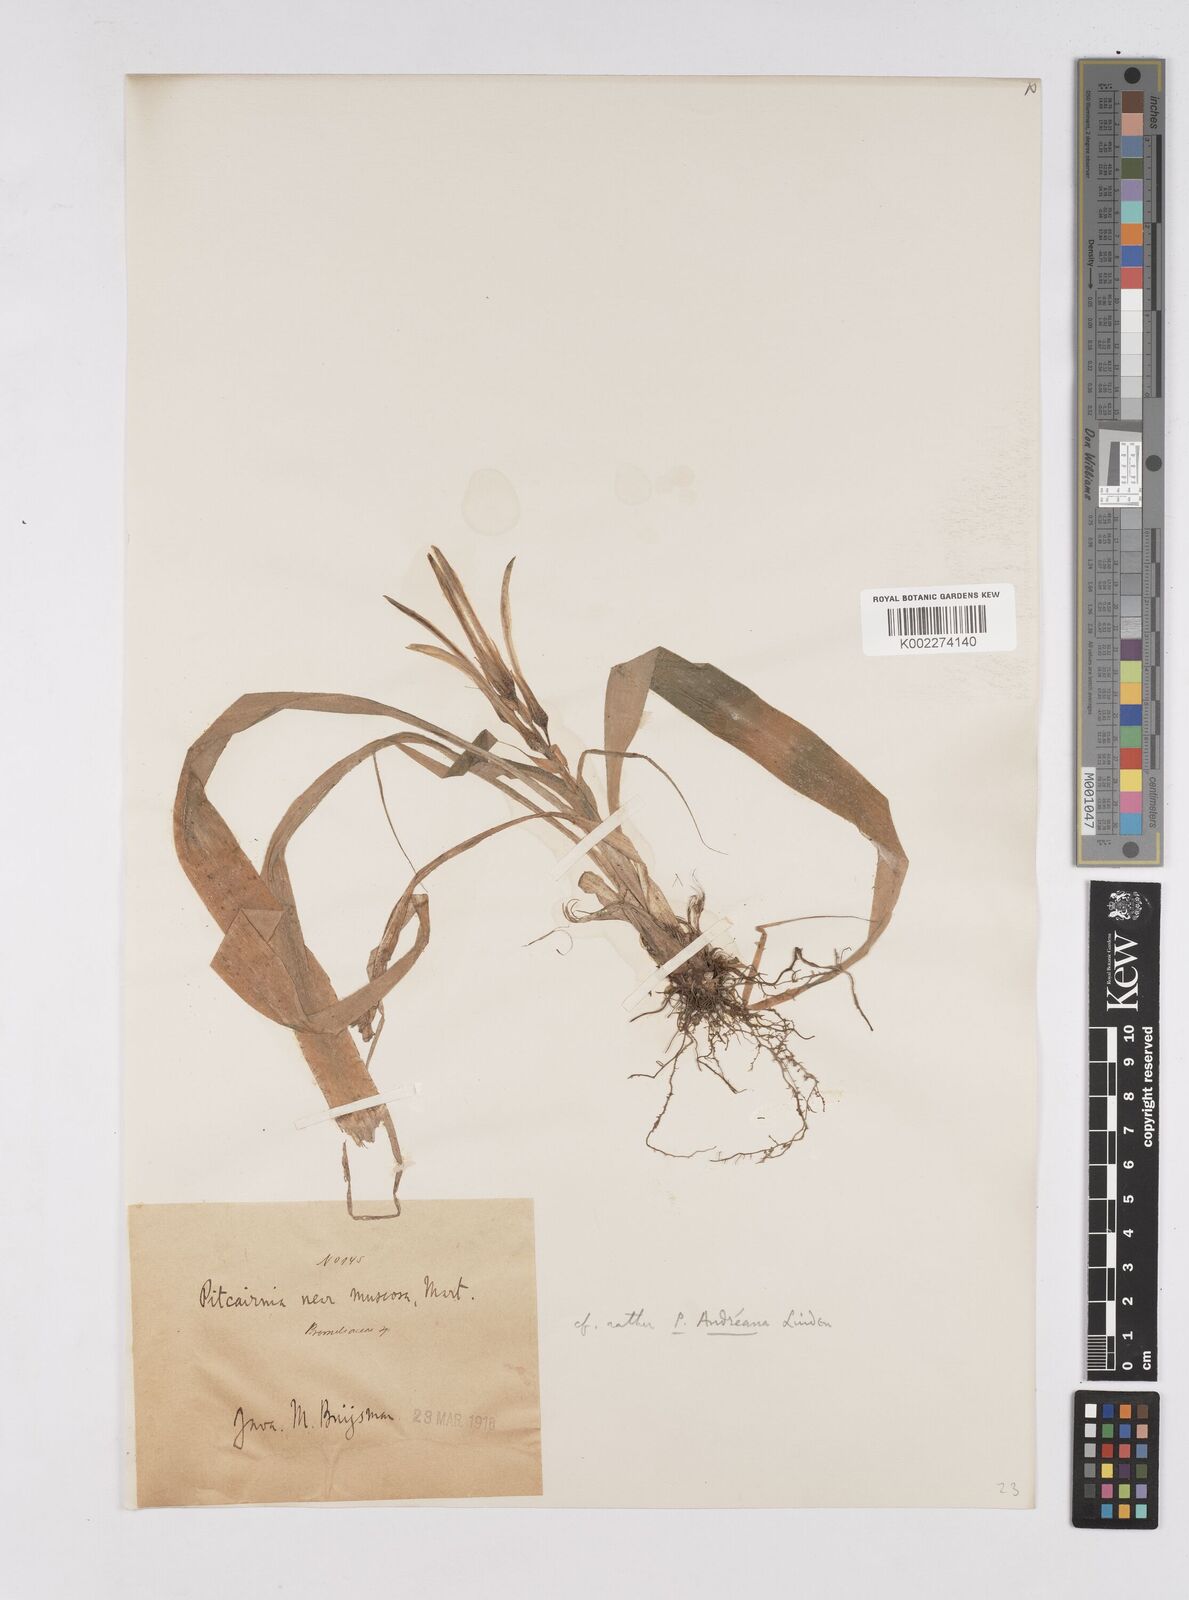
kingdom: Plantae
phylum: Tracheophyta
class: Liliopsida
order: Poales
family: Bromeliaceae
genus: Pitcairnia
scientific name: Pitcairnia andreana
